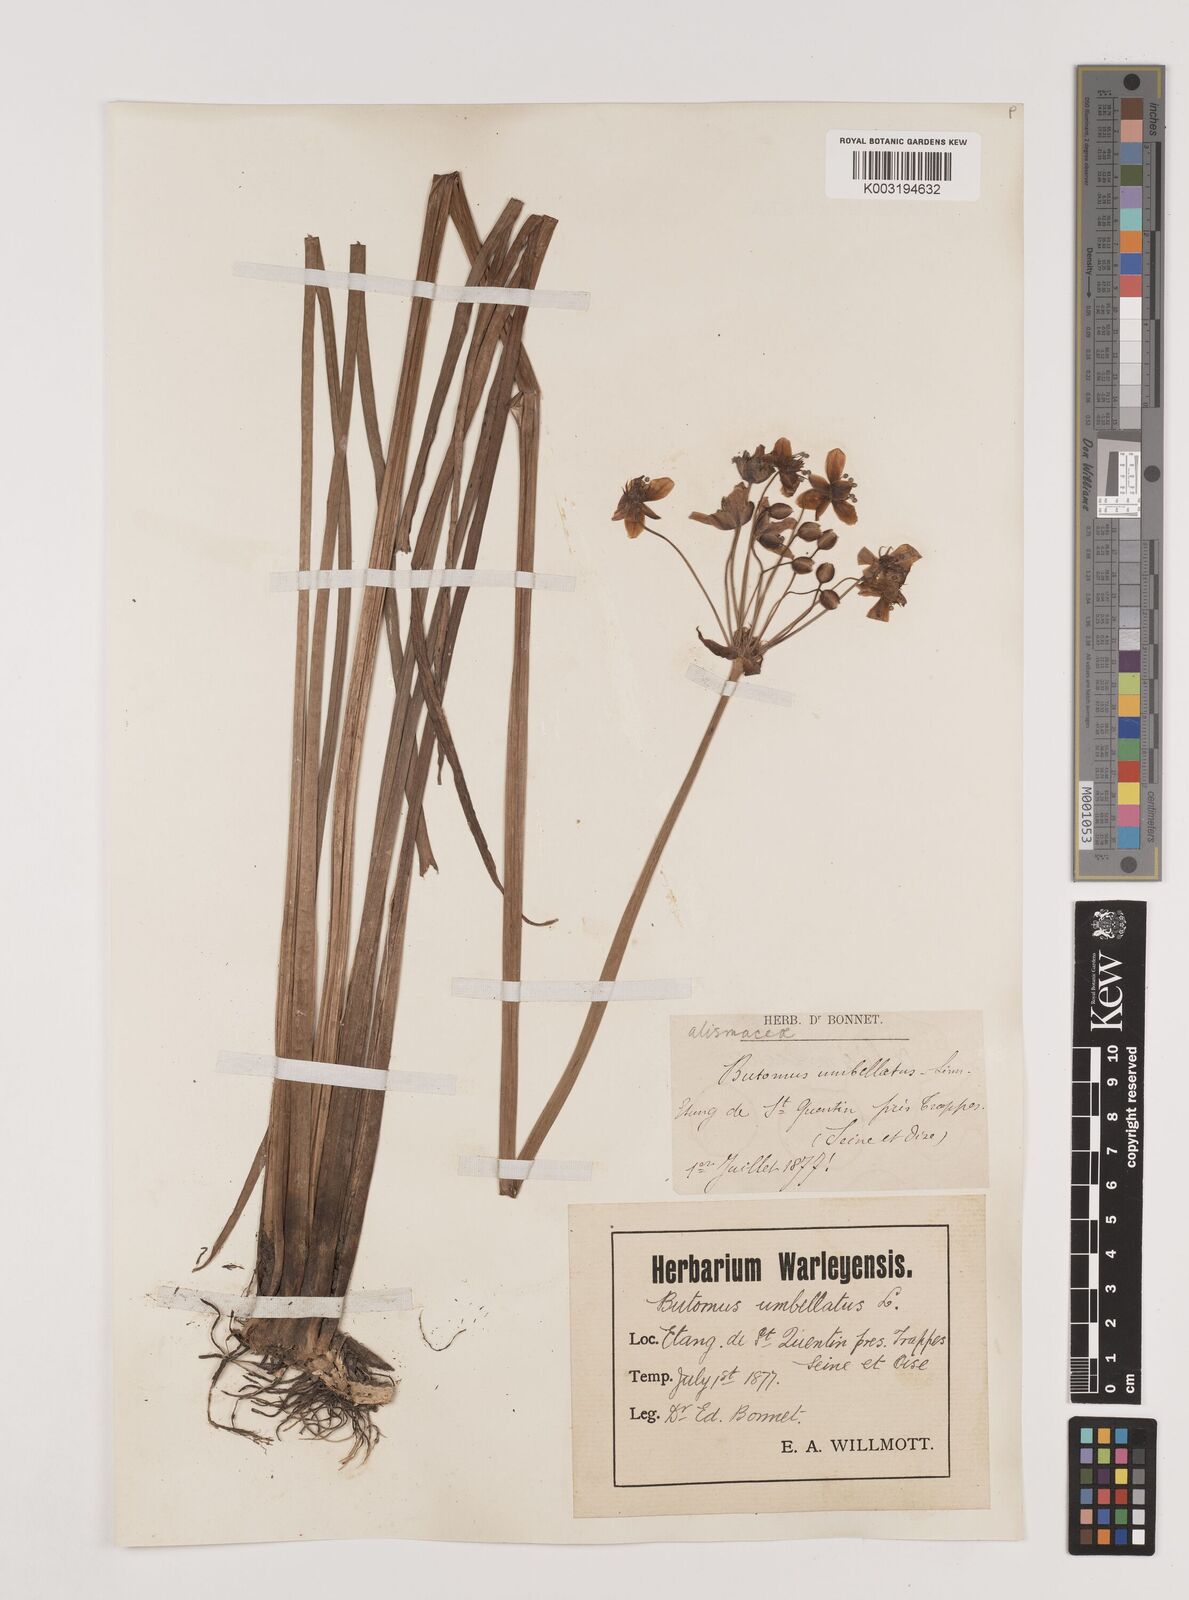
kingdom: Plantae
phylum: Tracheophyta
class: Liliopsida
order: Alismatales
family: Butomaceae
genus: Butomus
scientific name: Butomus umbellatus
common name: Flowering-rush
